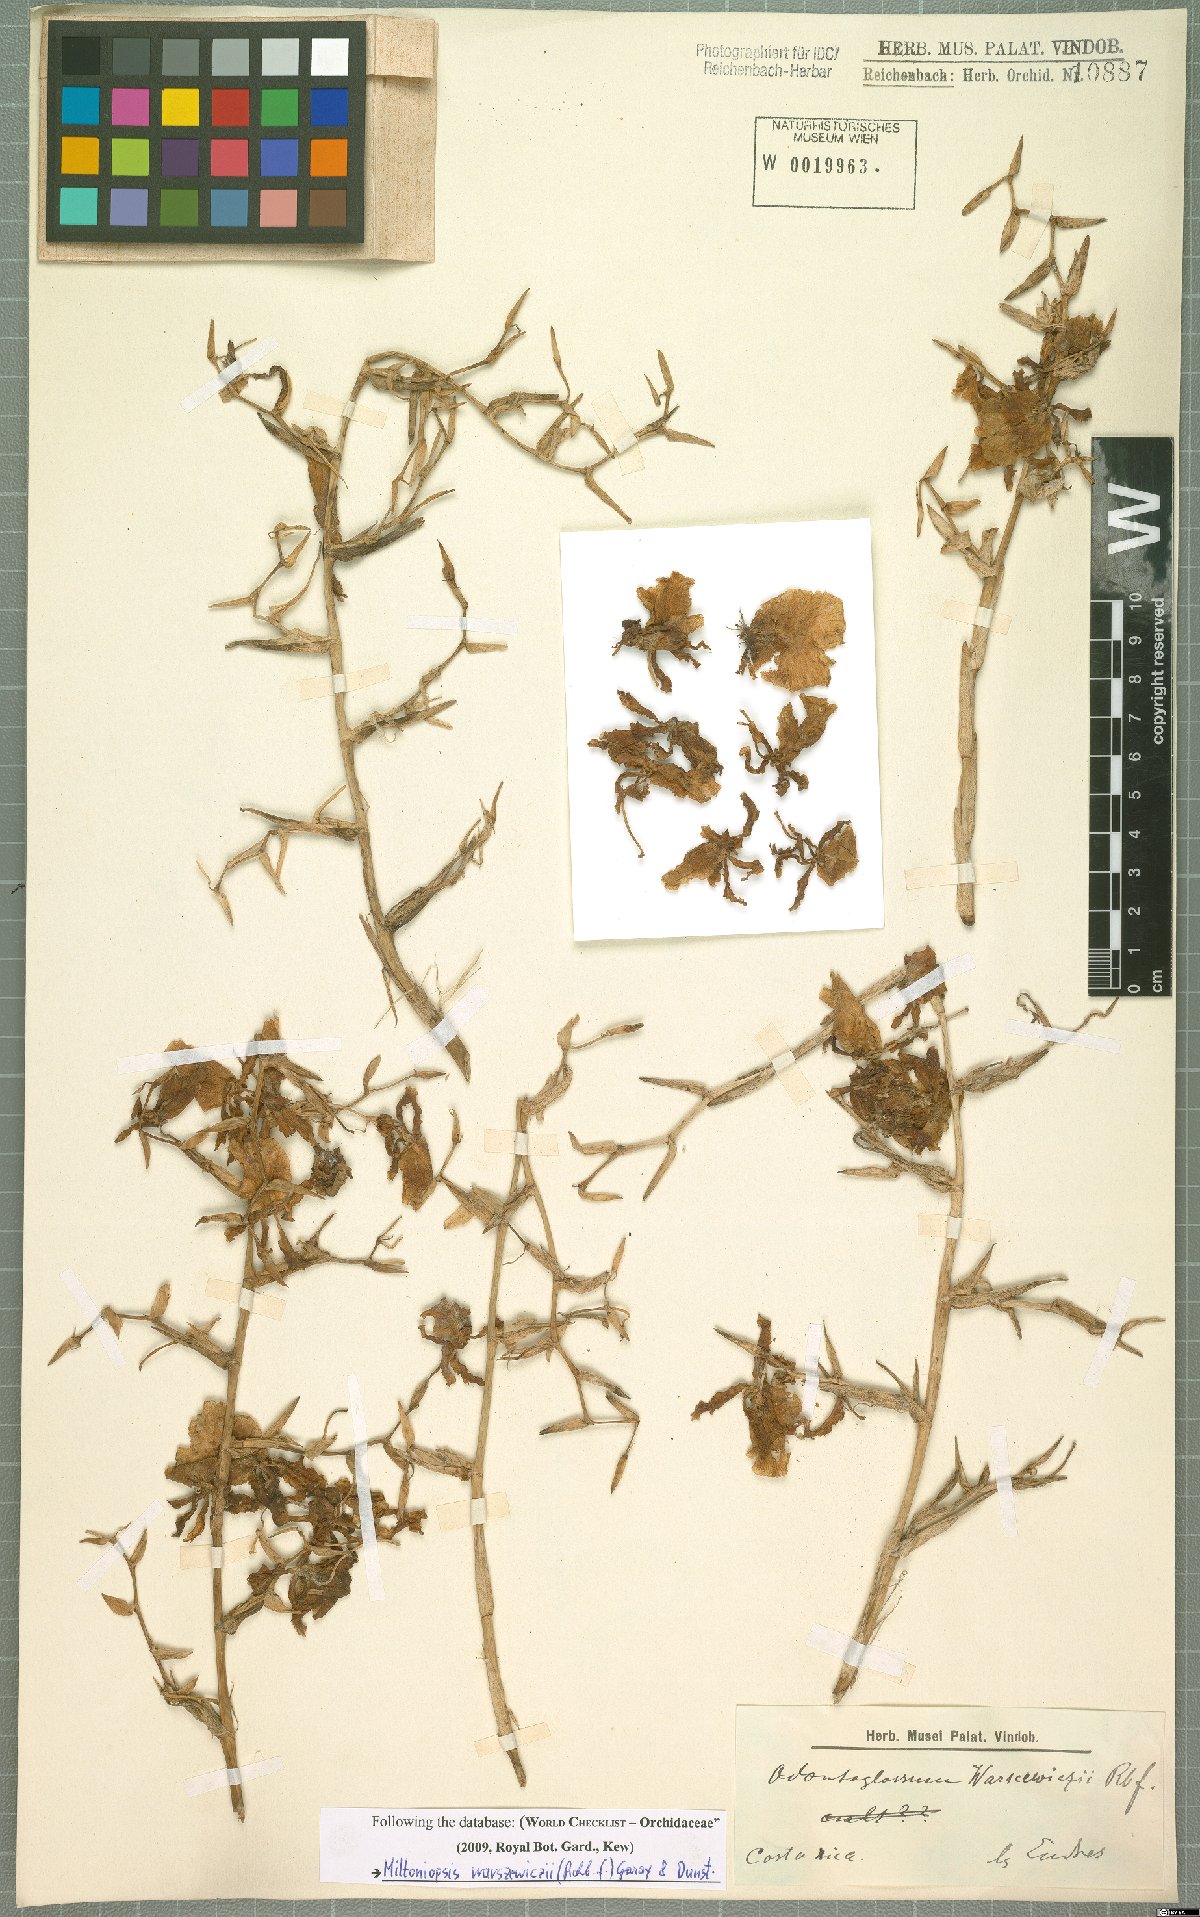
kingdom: Plantae
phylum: Tracheophyta
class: Liliopsida
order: Asparagales
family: Orchidaceae
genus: Miltoniopsis
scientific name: Miltoniopsis warszewiczii
